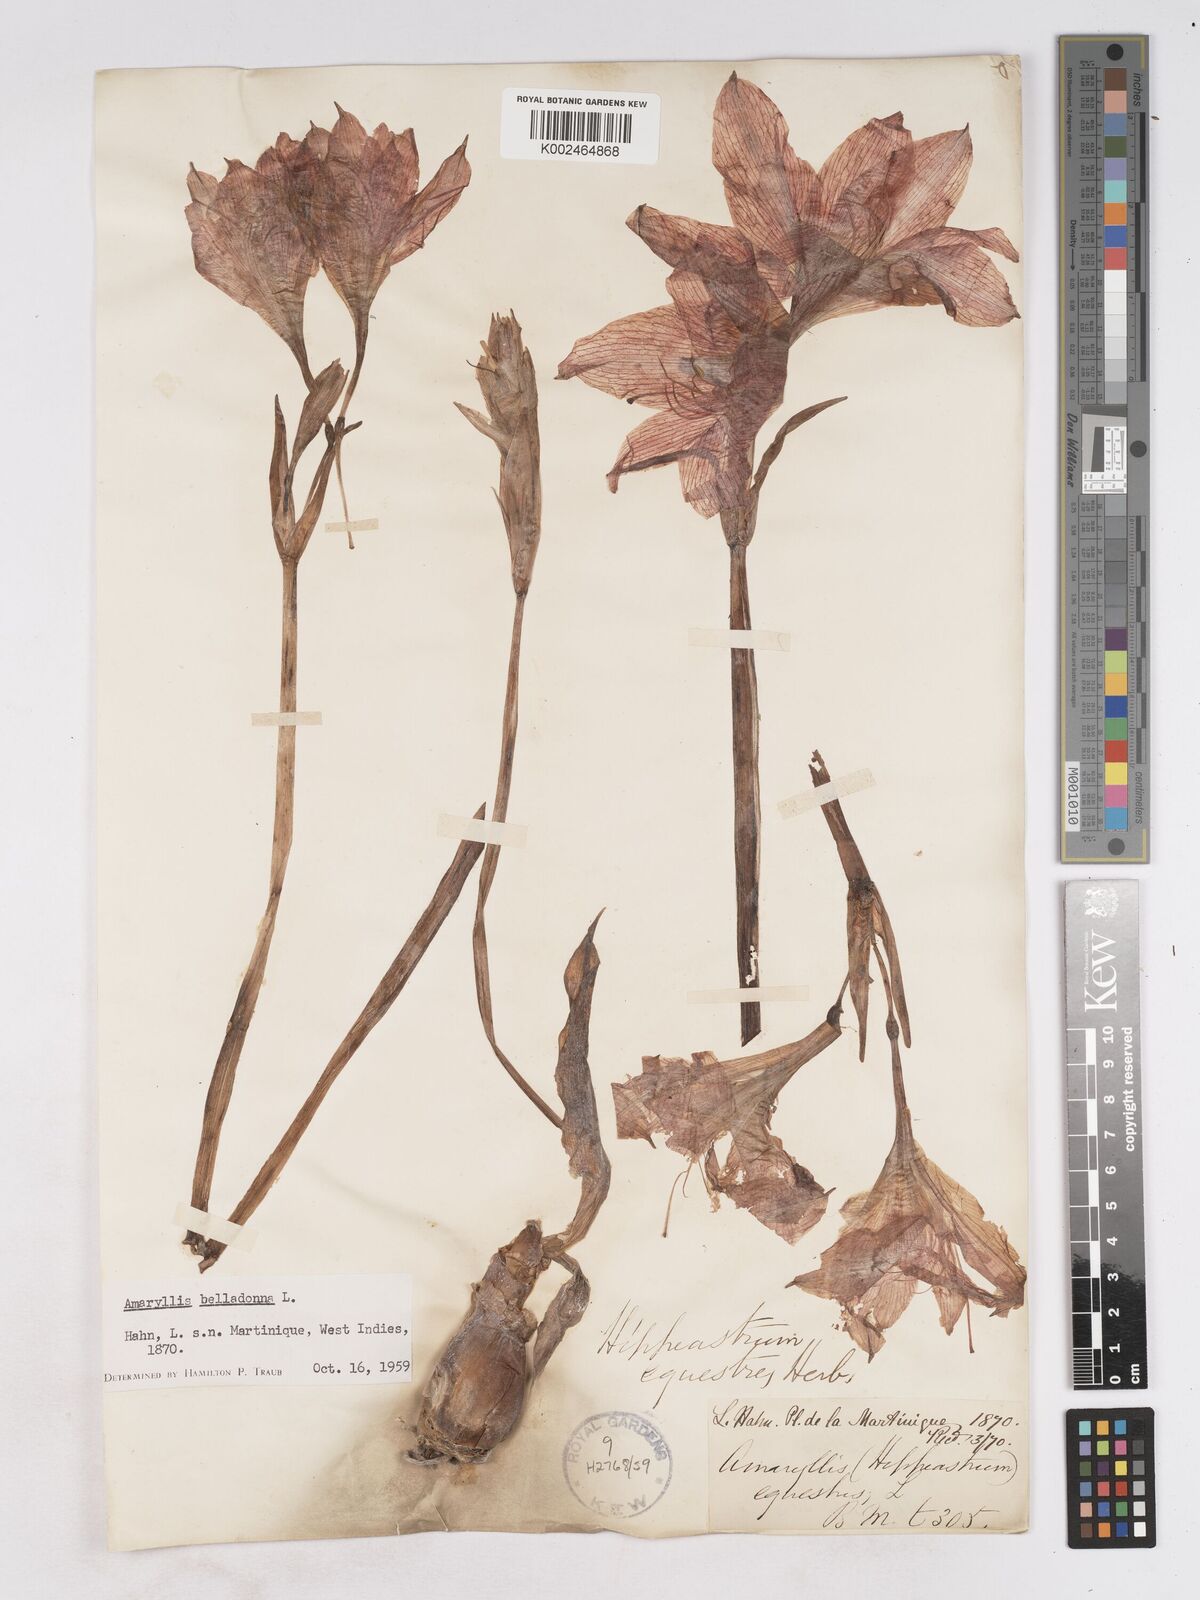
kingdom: Plantae
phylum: Tracheophyta
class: Liliopsida
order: Asparagales
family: Amaryllidaceae
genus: Hippeastrum
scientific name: Hippeastrum puniceum
